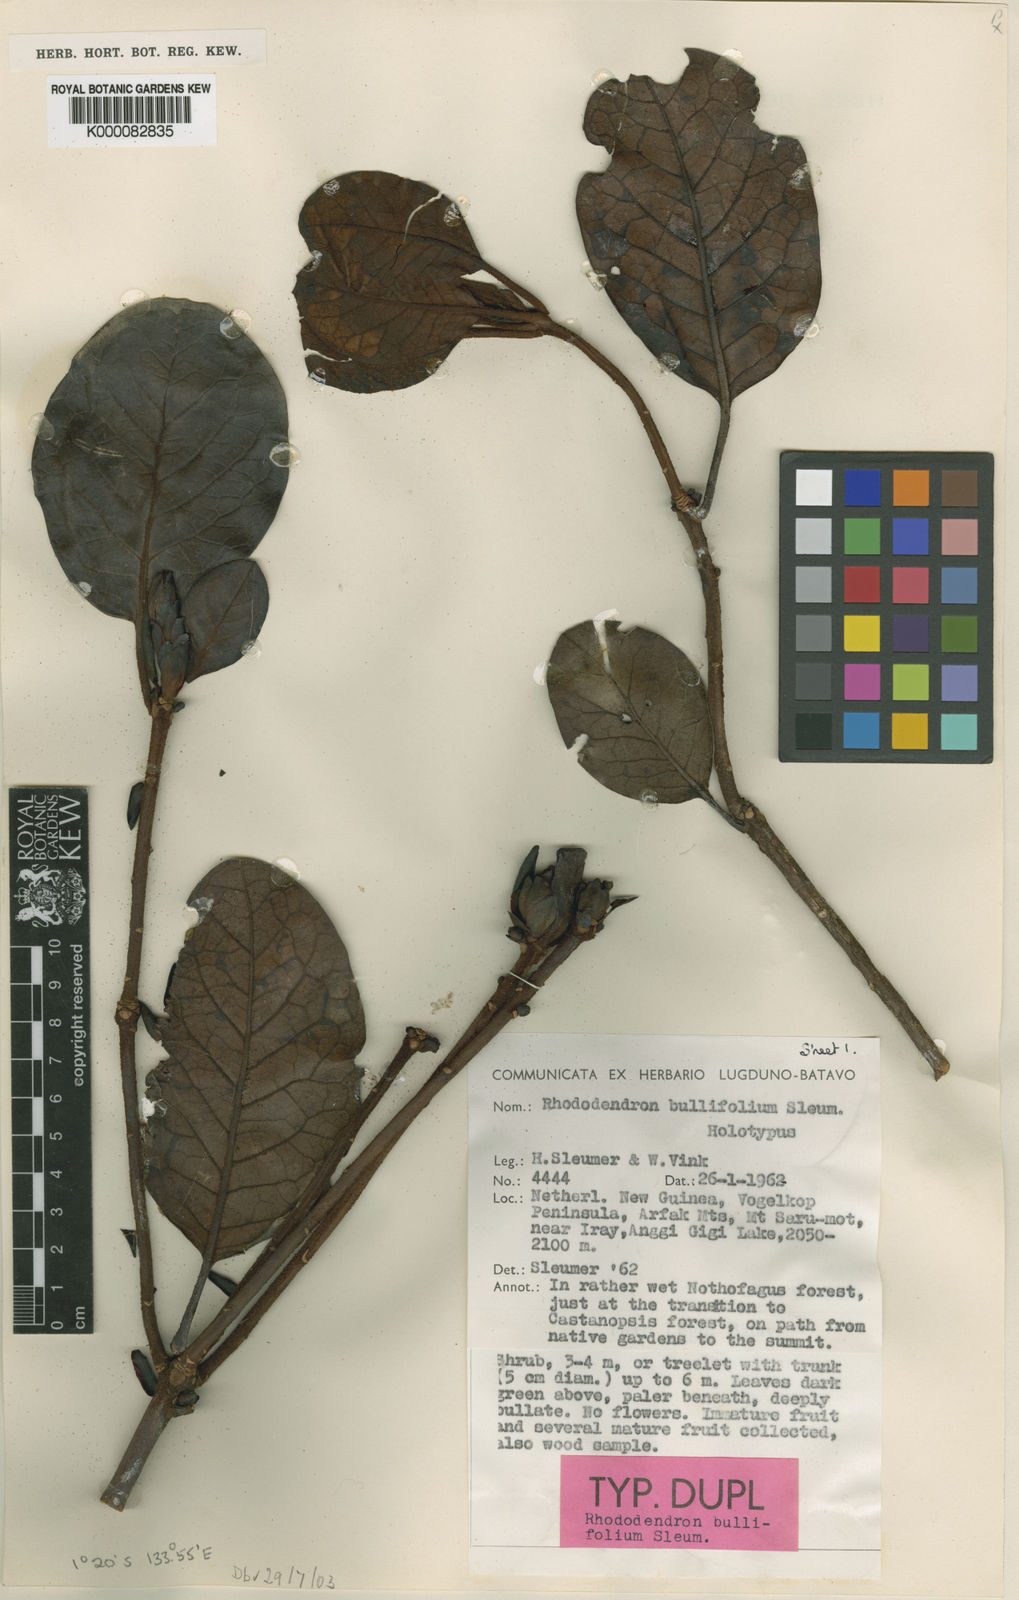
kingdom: Plantae
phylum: Tracheophyta
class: Magnoliopsida
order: Ericales
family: Ericaceae
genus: Rhododendron
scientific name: Rhododendron bullifolium
